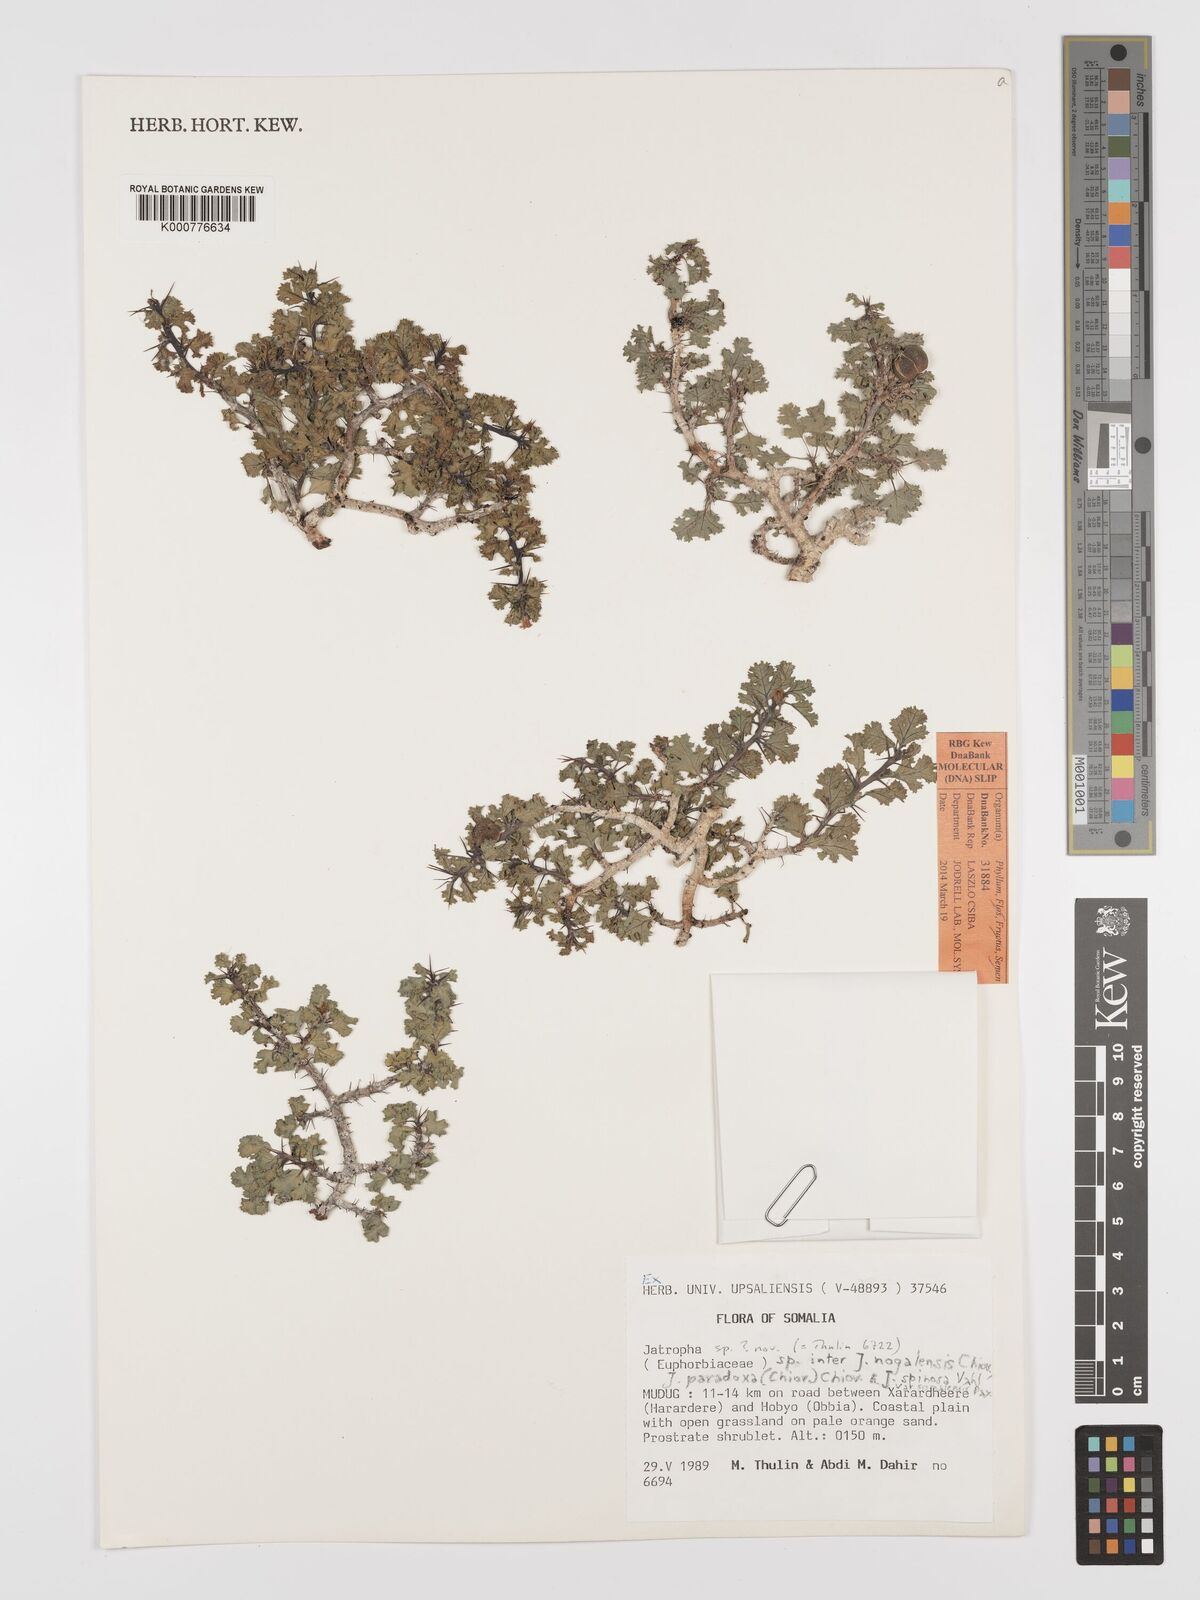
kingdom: Plantae
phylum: Tracheophyta
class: Magnoliopsida
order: Malpighiales
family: Euphorbiaceae
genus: Jatropha
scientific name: Jatropha nogalensis
